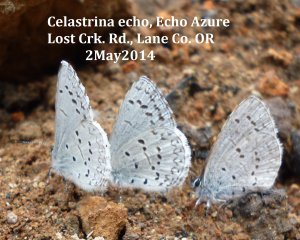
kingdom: Animalia
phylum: Arthropoda
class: Insecta
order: Lepidoptera
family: Lycaenidae
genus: Celastrina
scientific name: Celastrina ladon
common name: Spring Azure
